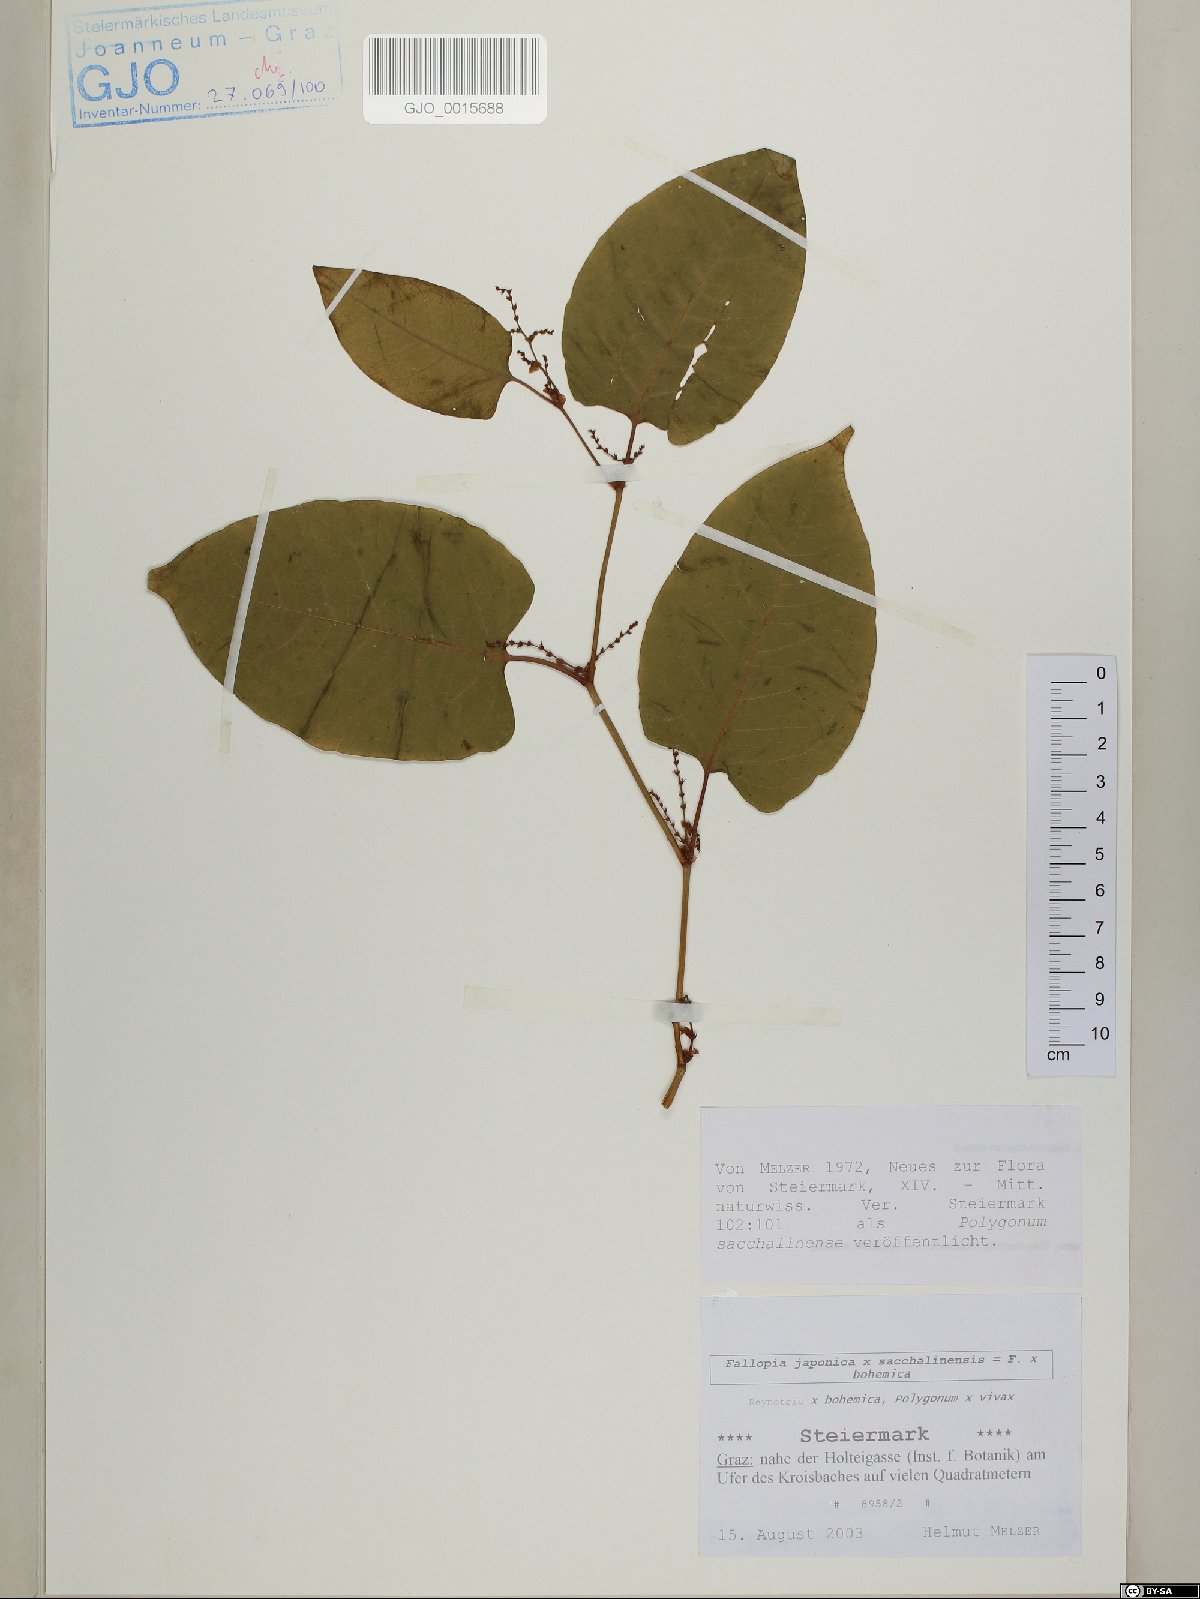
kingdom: Plantae
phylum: Tracheophyta
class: Magnoliopsida
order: Caryophyllales
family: Polygonaceae
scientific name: Polygonaceae
